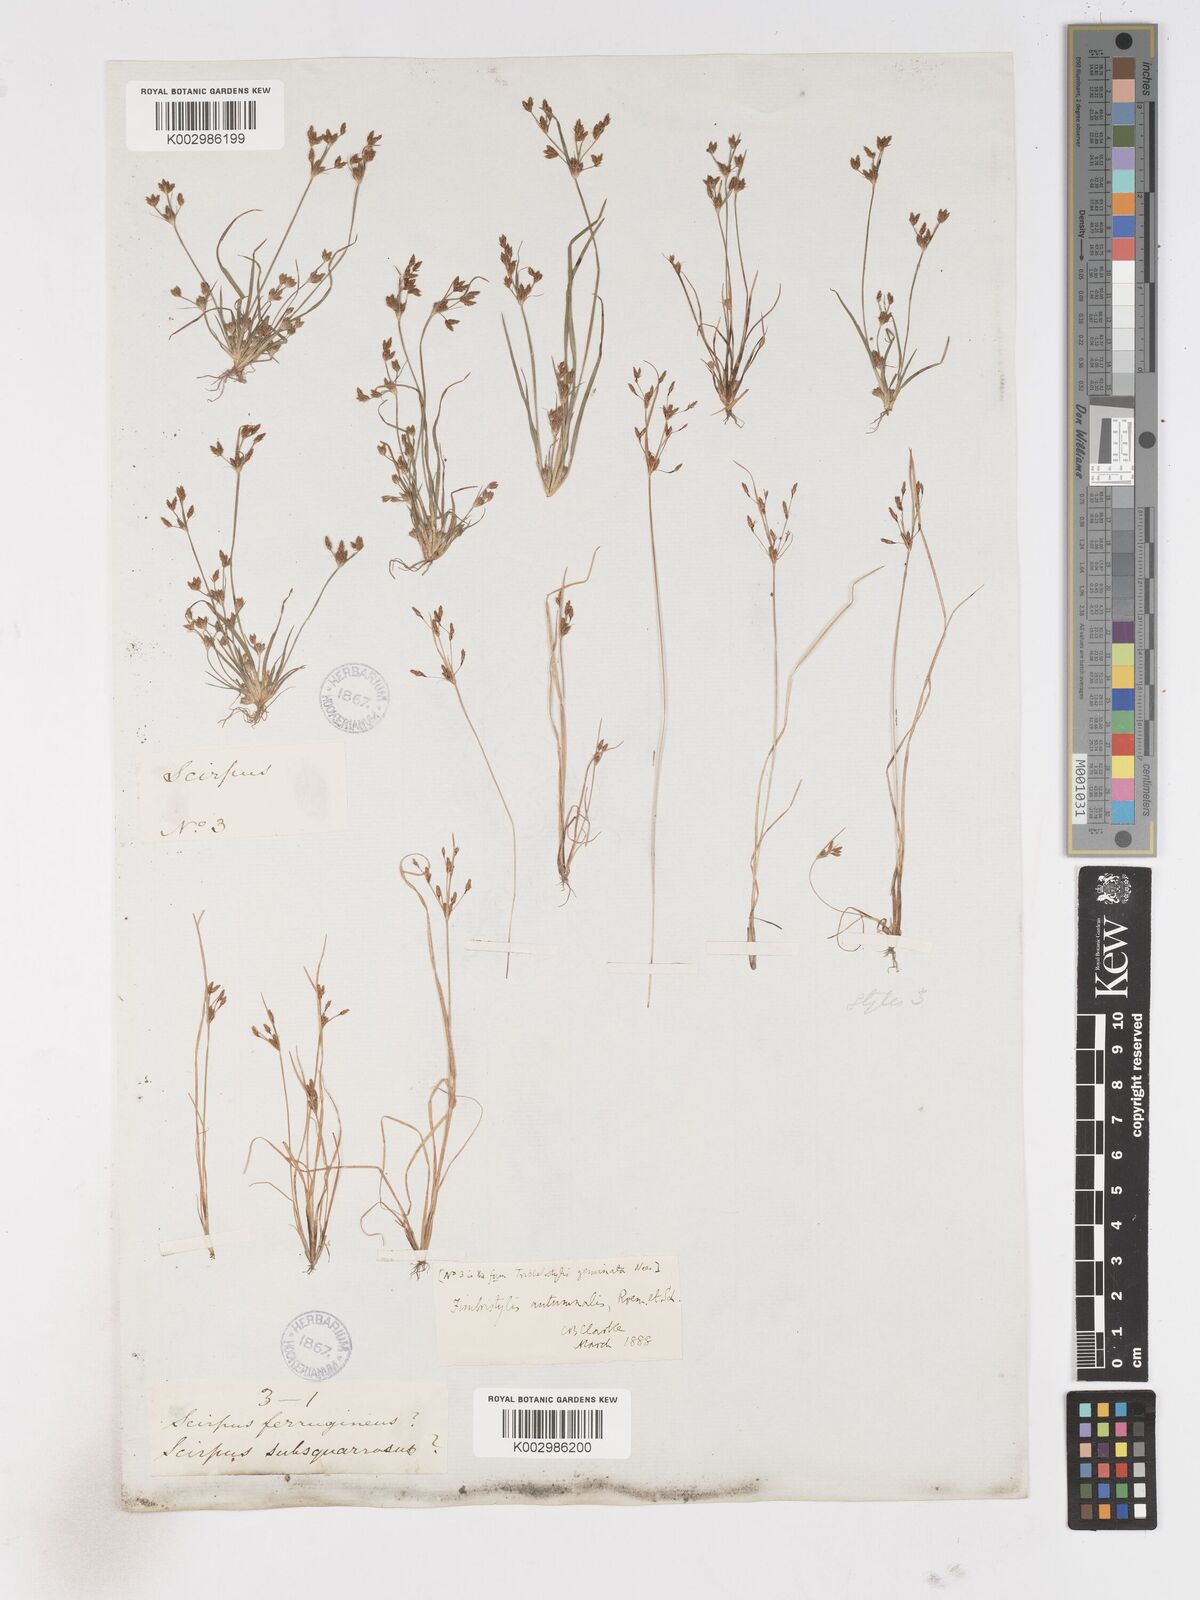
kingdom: Plantae
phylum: Tracheophyta
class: Liliopsida
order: Poales
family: Cyperaceae
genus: Fimbristylis
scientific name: Fimbristylis autumnalis
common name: Slender fimbristylis
